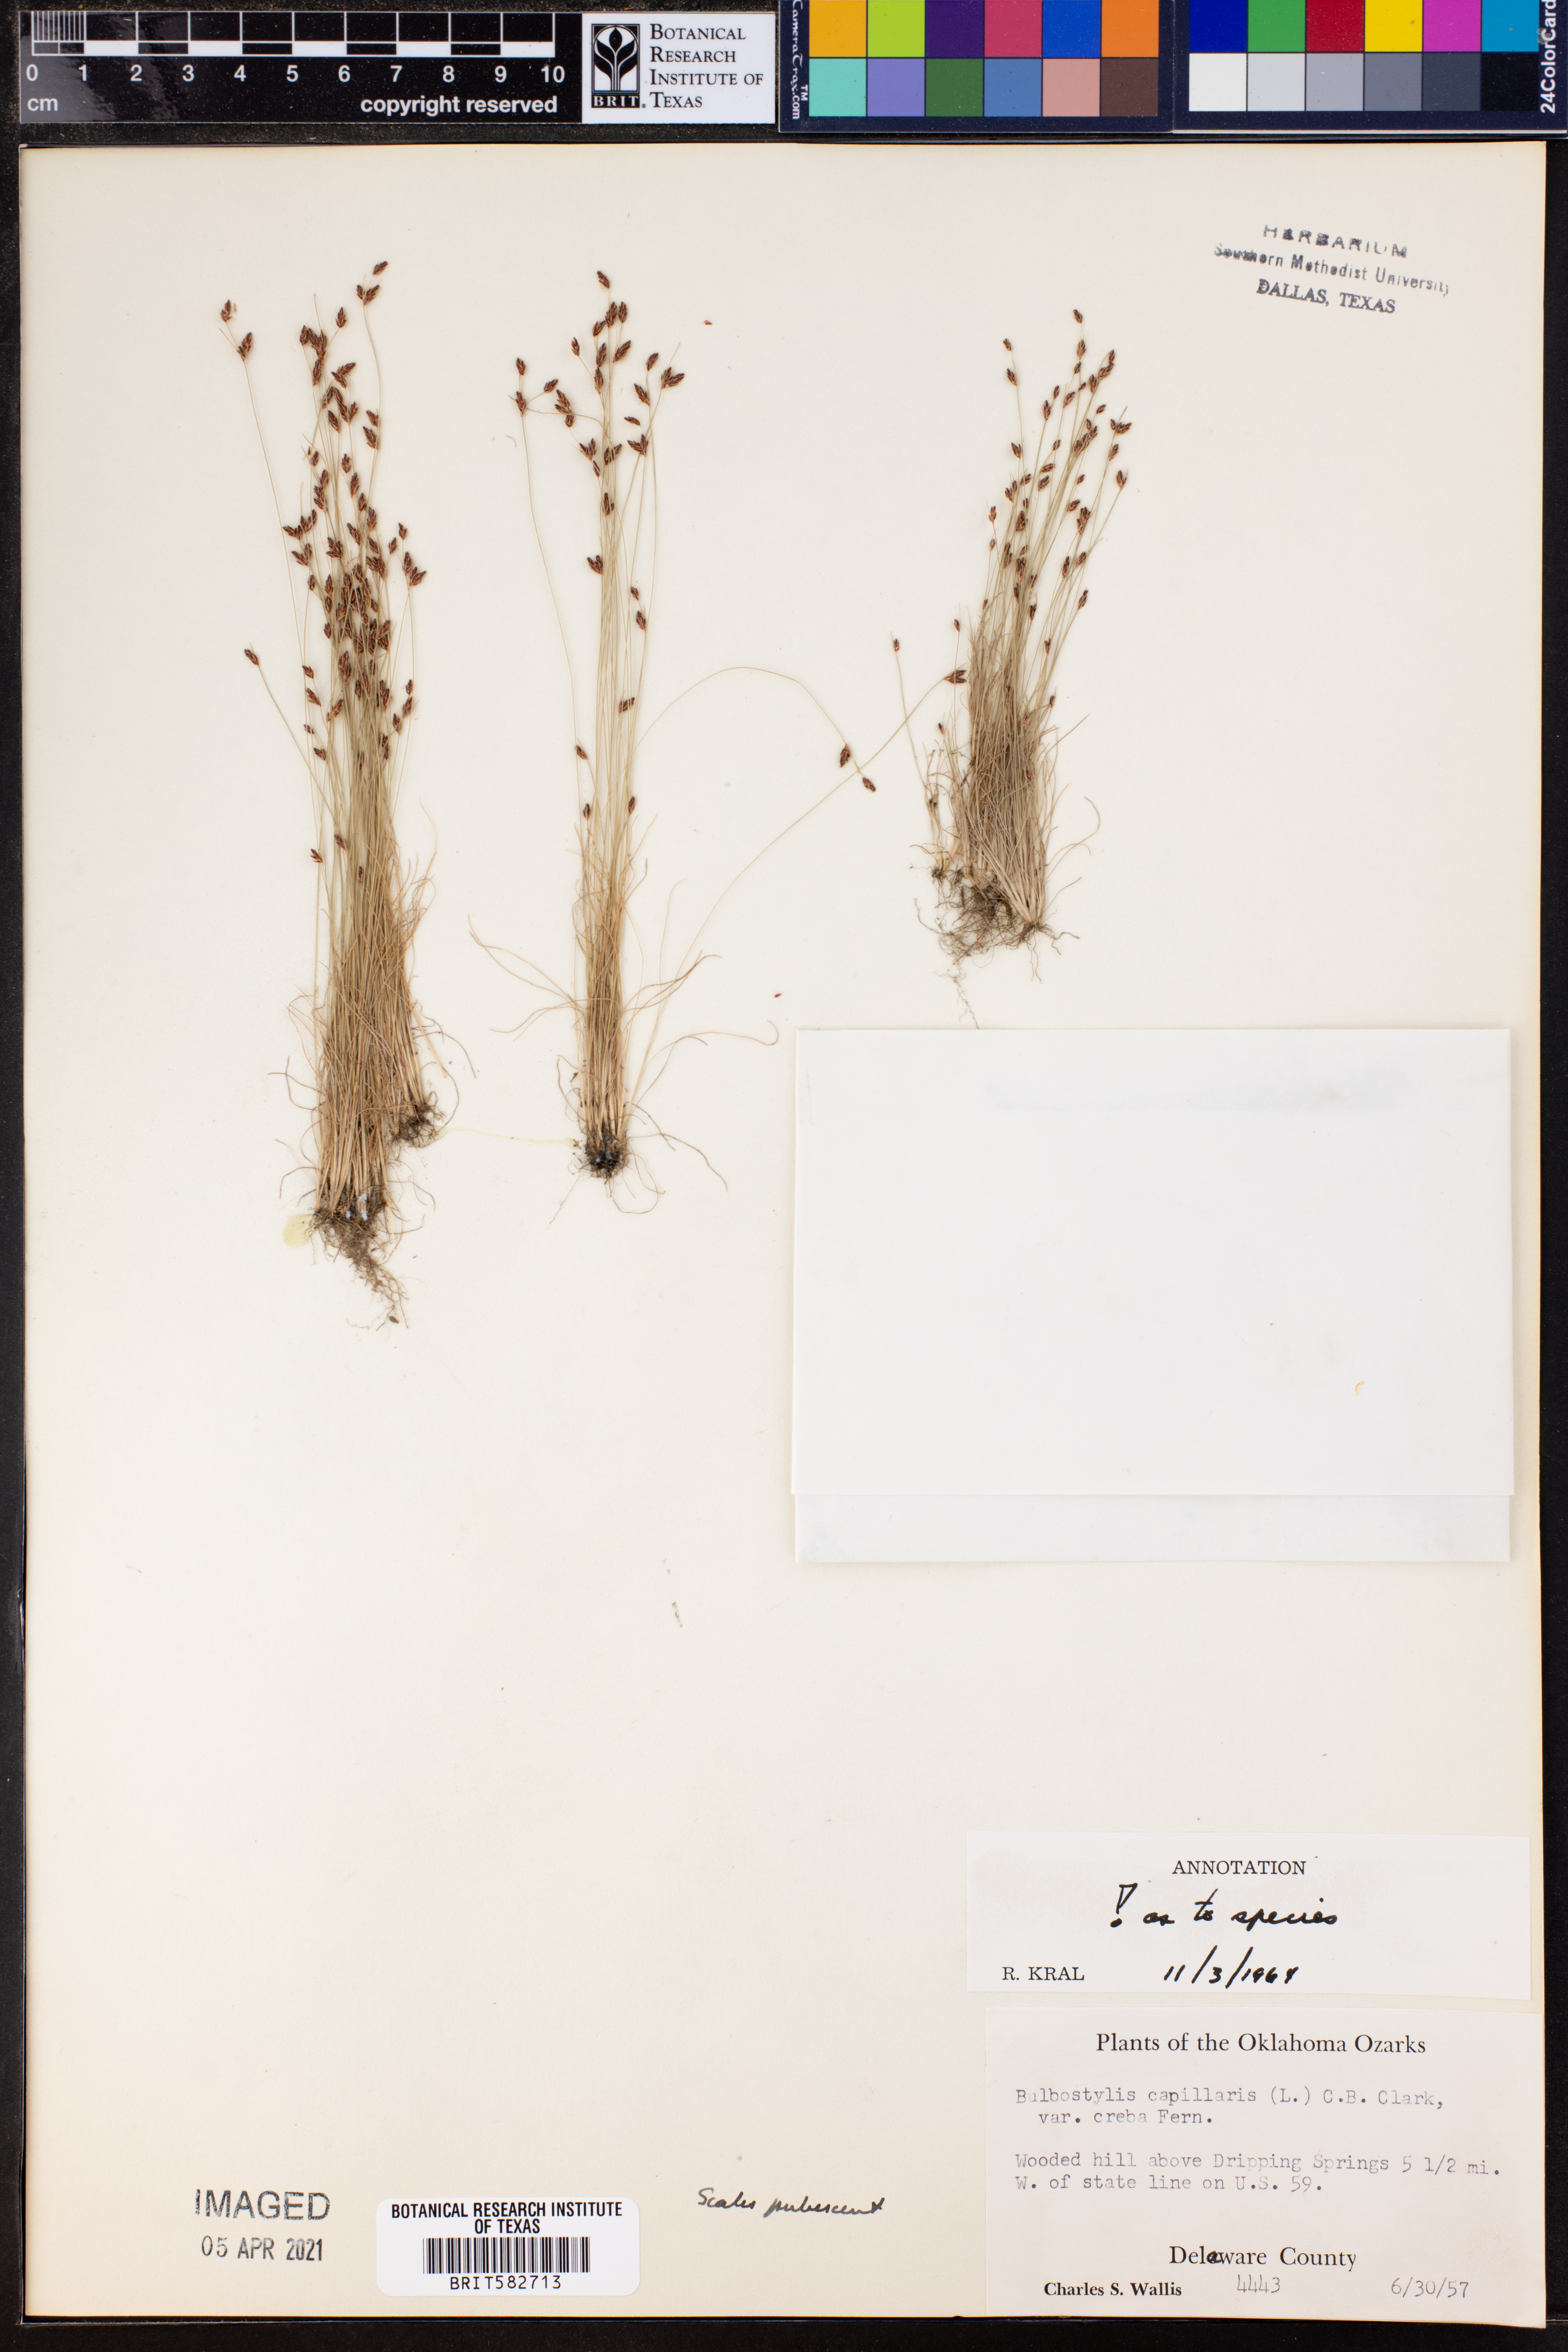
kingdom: Plantae
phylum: Tracheophyta
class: Liliopsida
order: Poales
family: Cyperaceae
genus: Bulbostylis
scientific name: Bulbostylis capillaris
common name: Densetuft hairsedge
